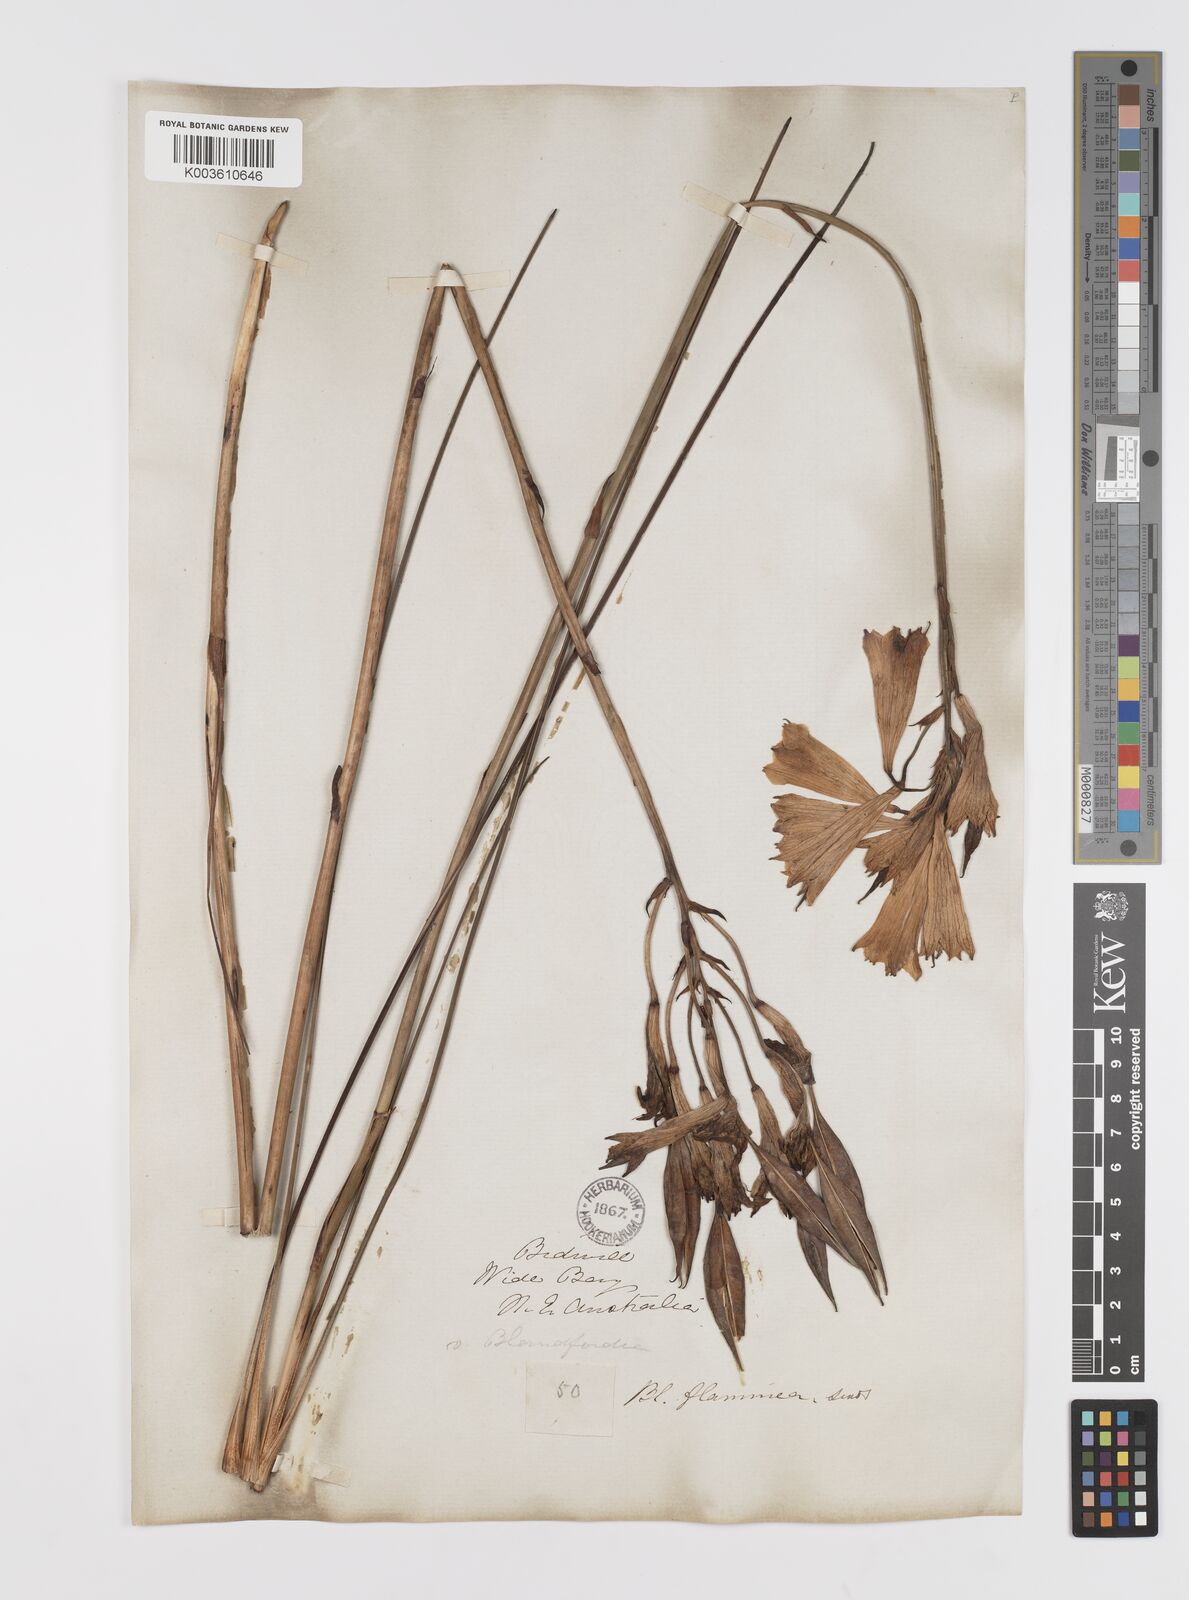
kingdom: Plantae
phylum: Tracheophyta
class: Liliopsida
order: Asparagales
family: Blandfordiaceae
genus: Blandfordia
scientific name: Blandfordia punicea
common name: Tasmanian christmas-bell
